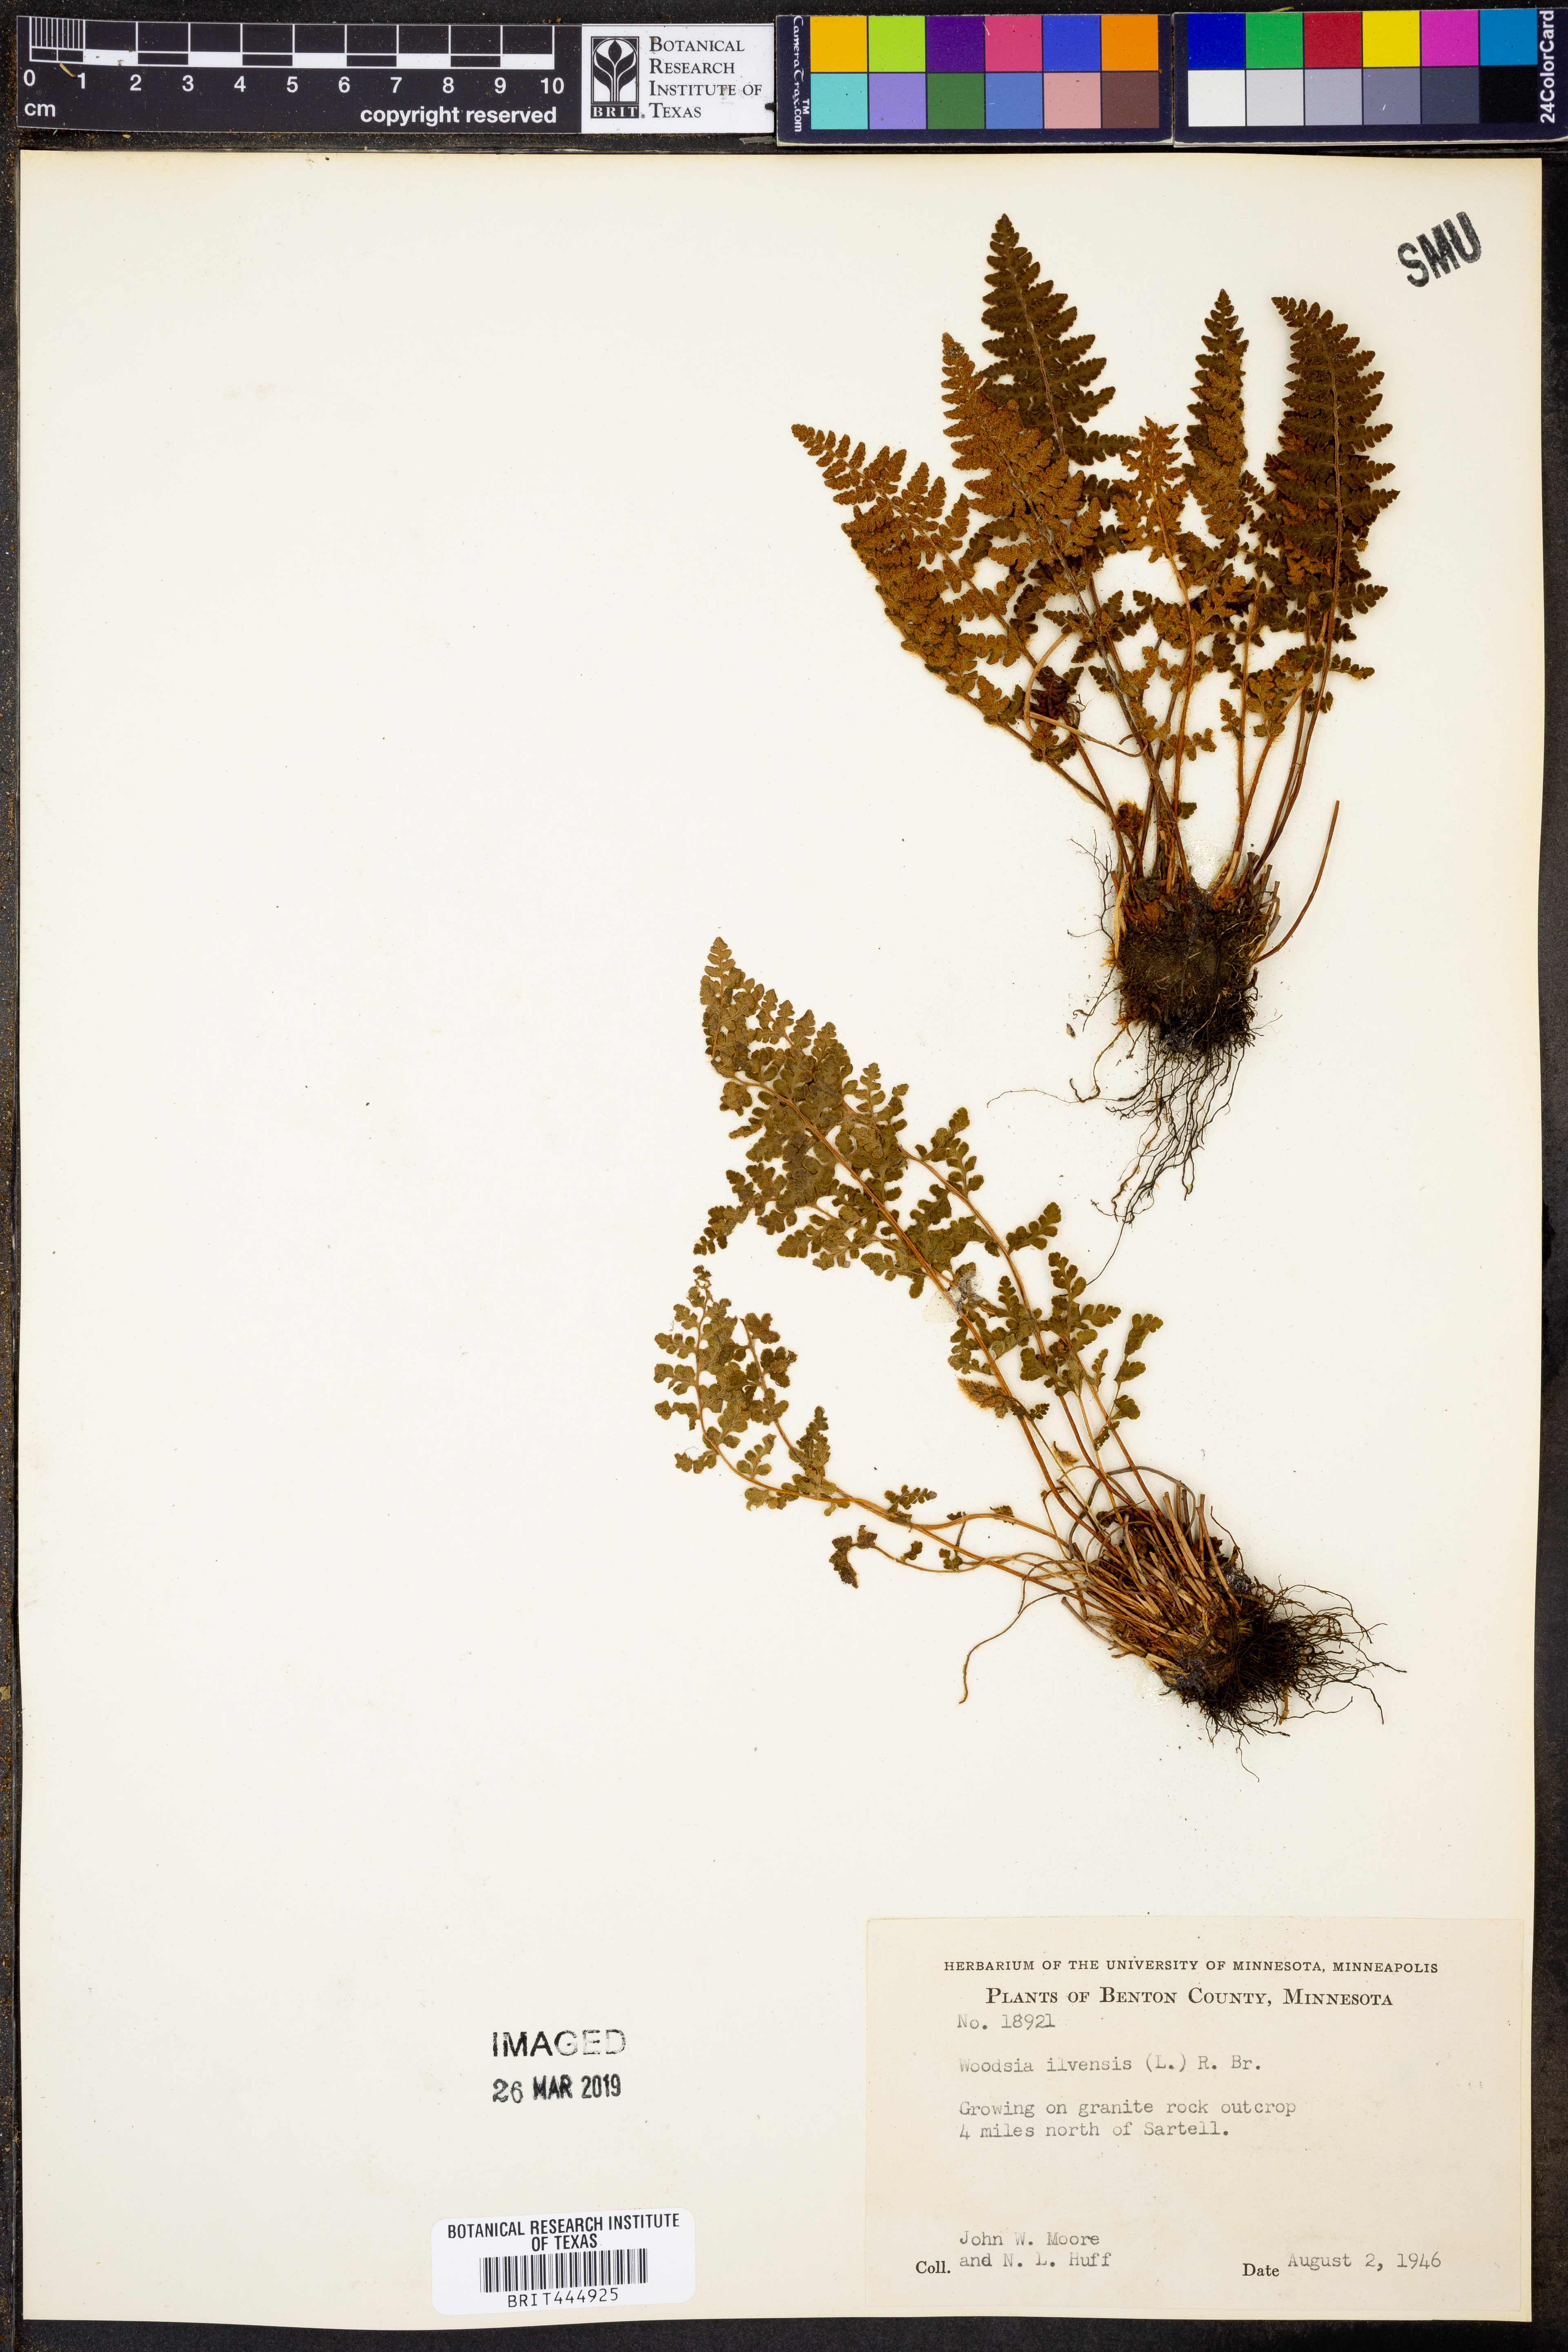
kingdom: Plantae
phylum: Tracheophyta
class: Polypodiopsida
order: Polypodiales
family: Woodsiaceae
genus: Woodsia
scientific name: Woodsia ilvensis
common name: Fragrant woodsia
